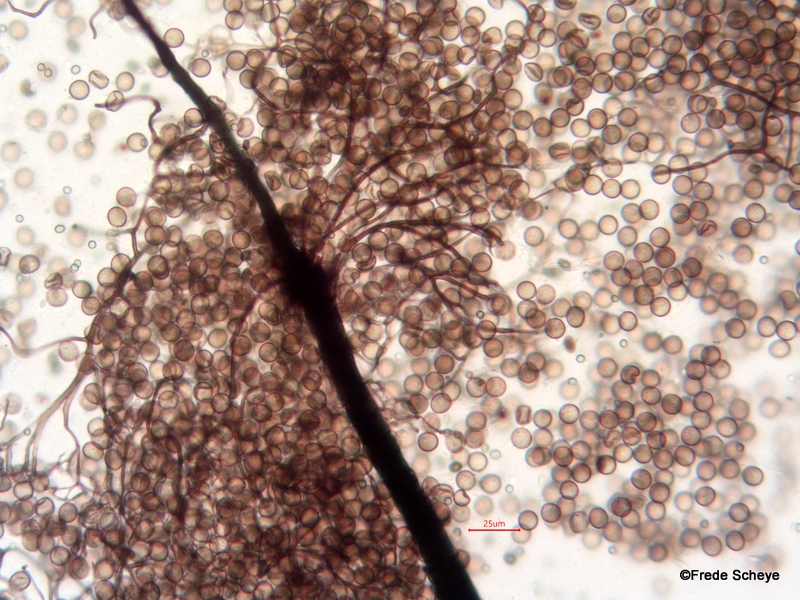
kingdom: Protozoa
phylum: Mycetozoa
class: Myxomycetes
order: Stemonitidales
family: Stemonitidaceae
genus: Comatricha
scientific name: Comatricha nigra
